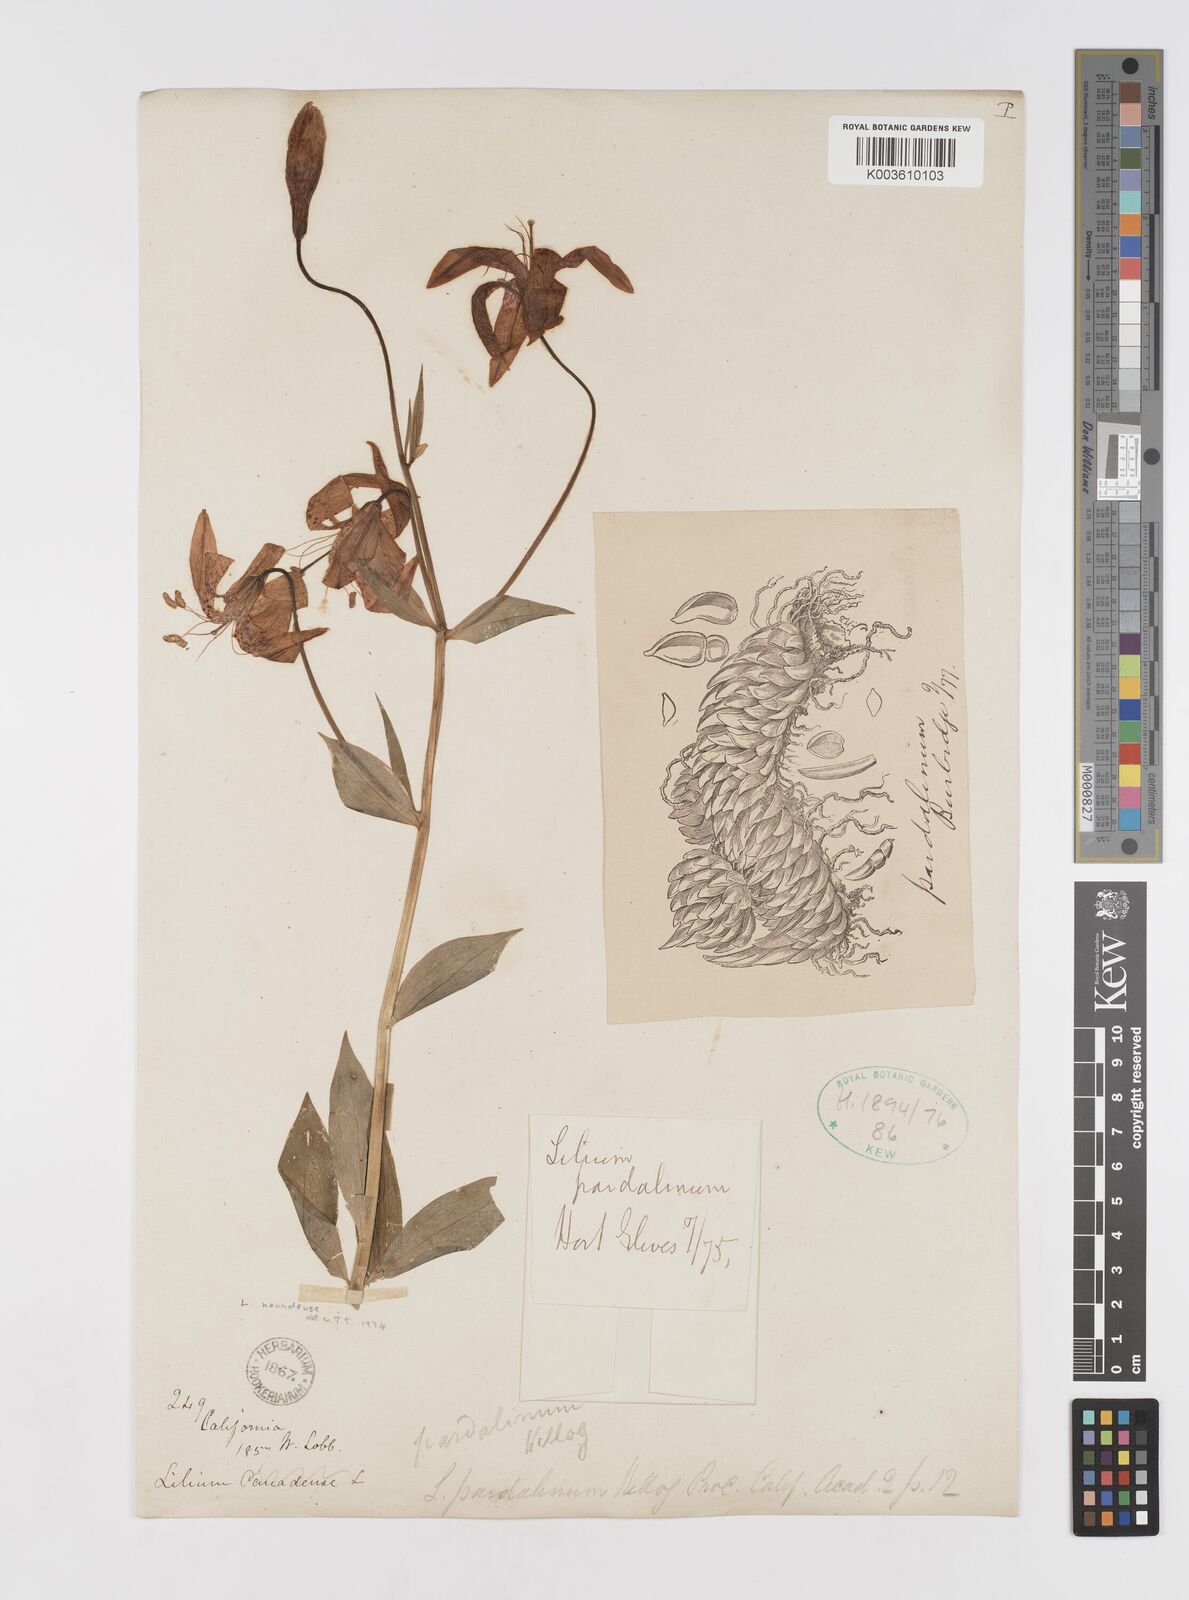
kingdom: Plantae
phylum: Tracheophyta
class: Liliopsida
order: Liliales
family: Liliaceae
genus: Lilium
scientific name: Lilium pardalinum
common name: Panther lily
